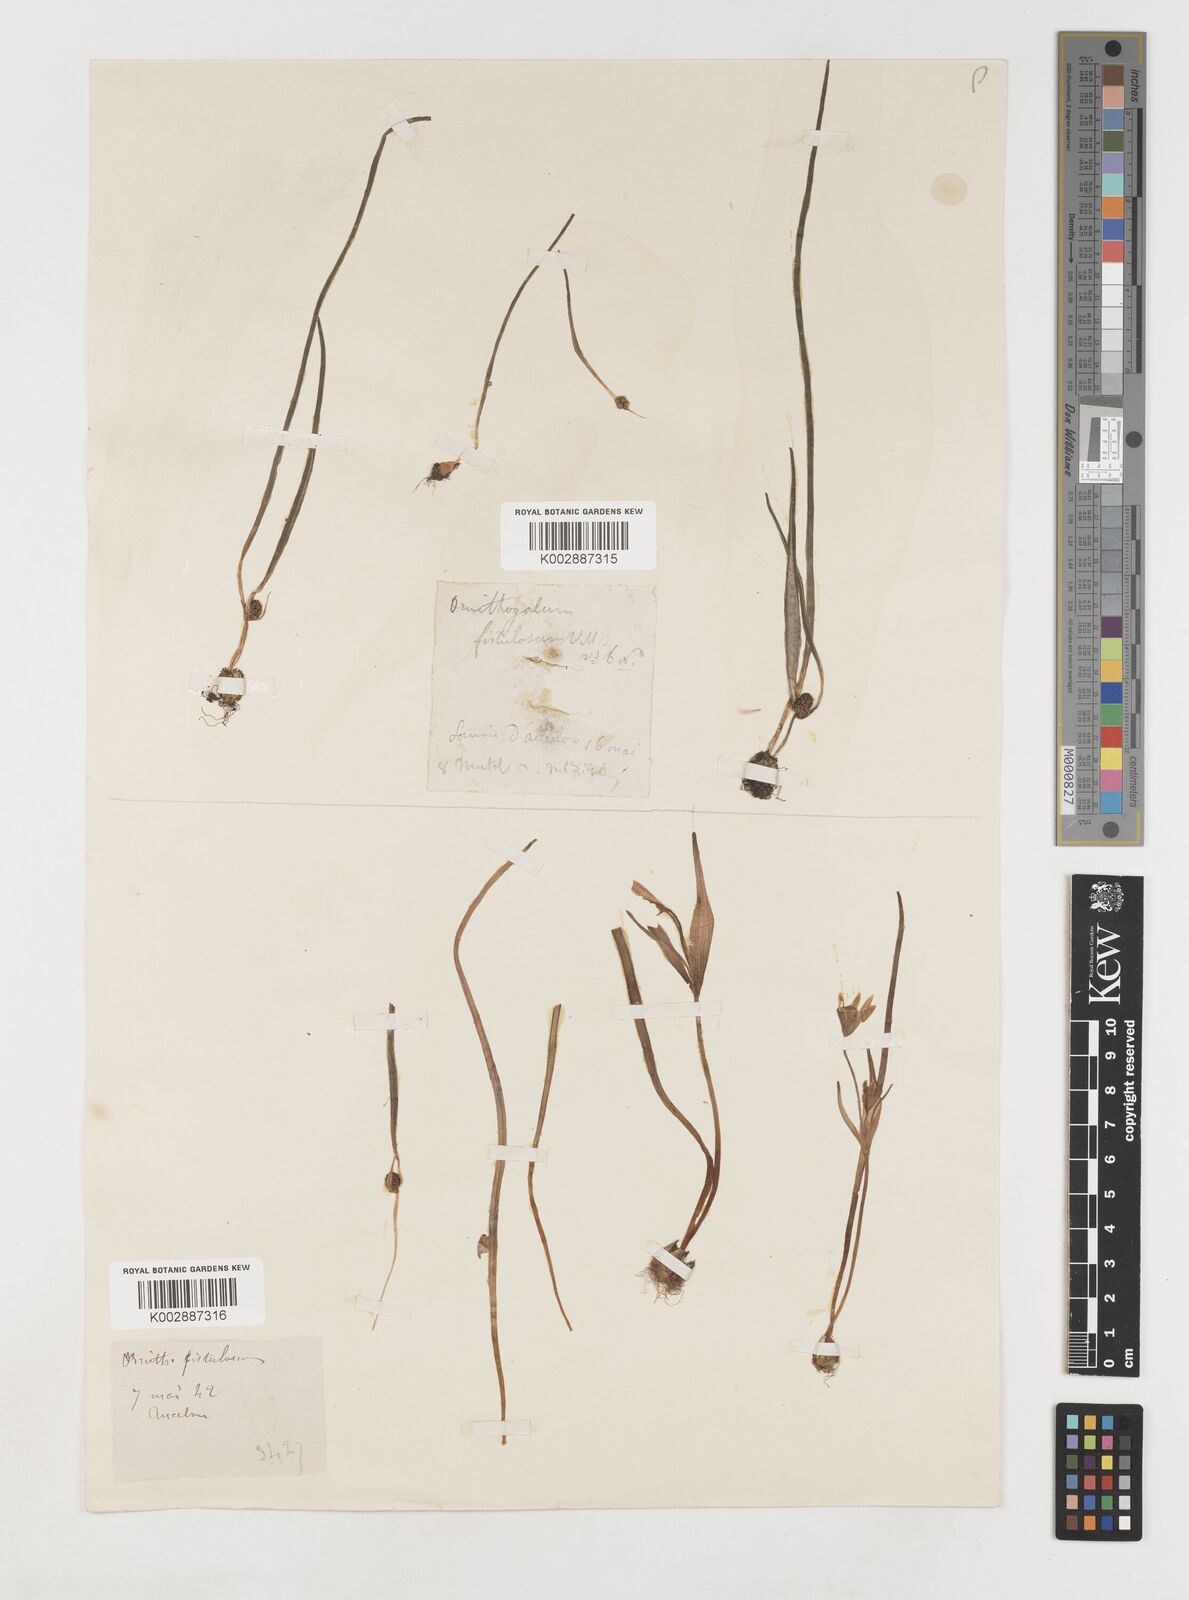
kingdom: Plantae
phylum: Tracheophyta
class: Liliopsida
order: Liliales
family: Liliaceae
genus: Gagea
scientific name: Gagea bohemica
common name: Early star-of-bethlehem
